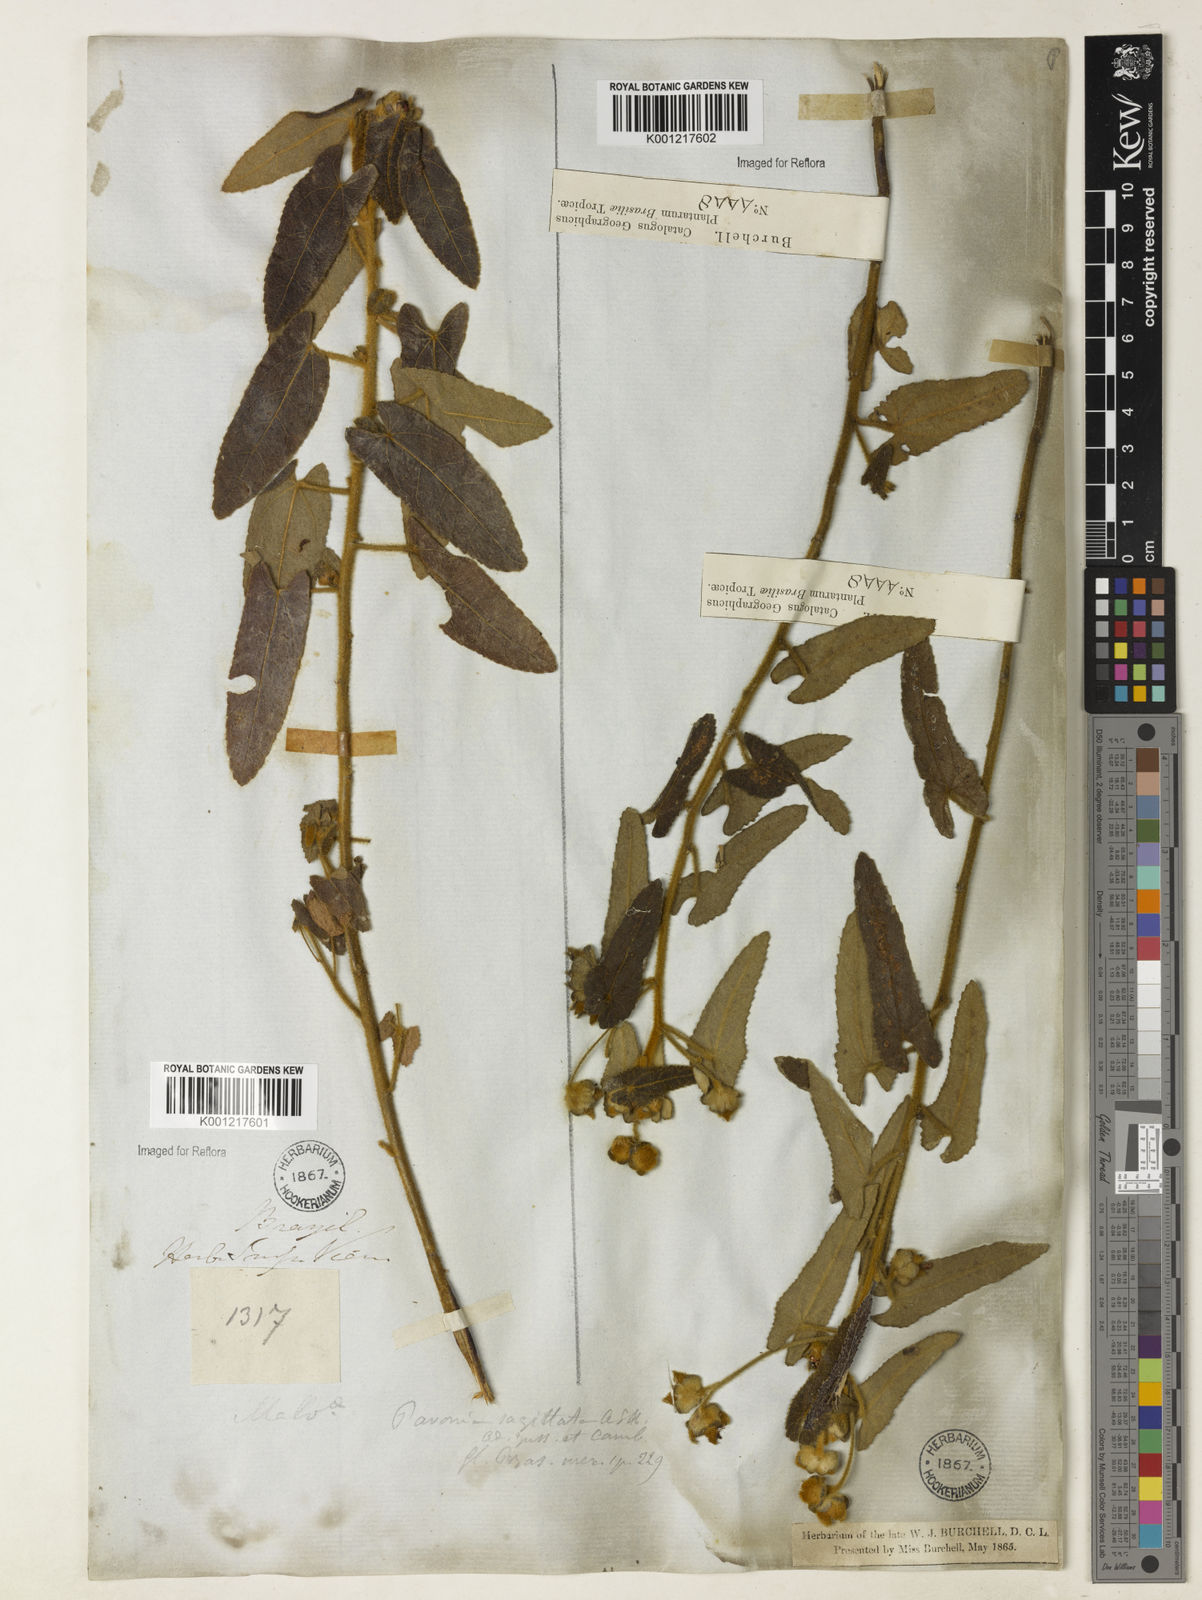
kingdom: Plantae
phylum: Tracheophyta
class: Magnoliopsida
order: Malvales
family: Malvaceae
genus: Pavonia
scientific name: Pavonia
